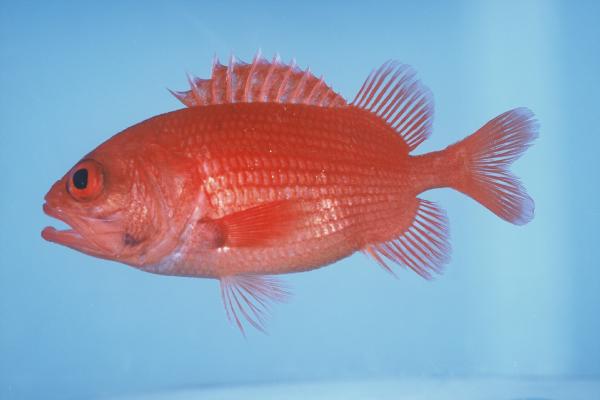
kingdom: Animalia
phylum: Chordata
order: Beryciformes
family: Holocentridae
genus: Plectrypops
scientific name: Plectrypops lima
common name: Cardinal soldierfish
